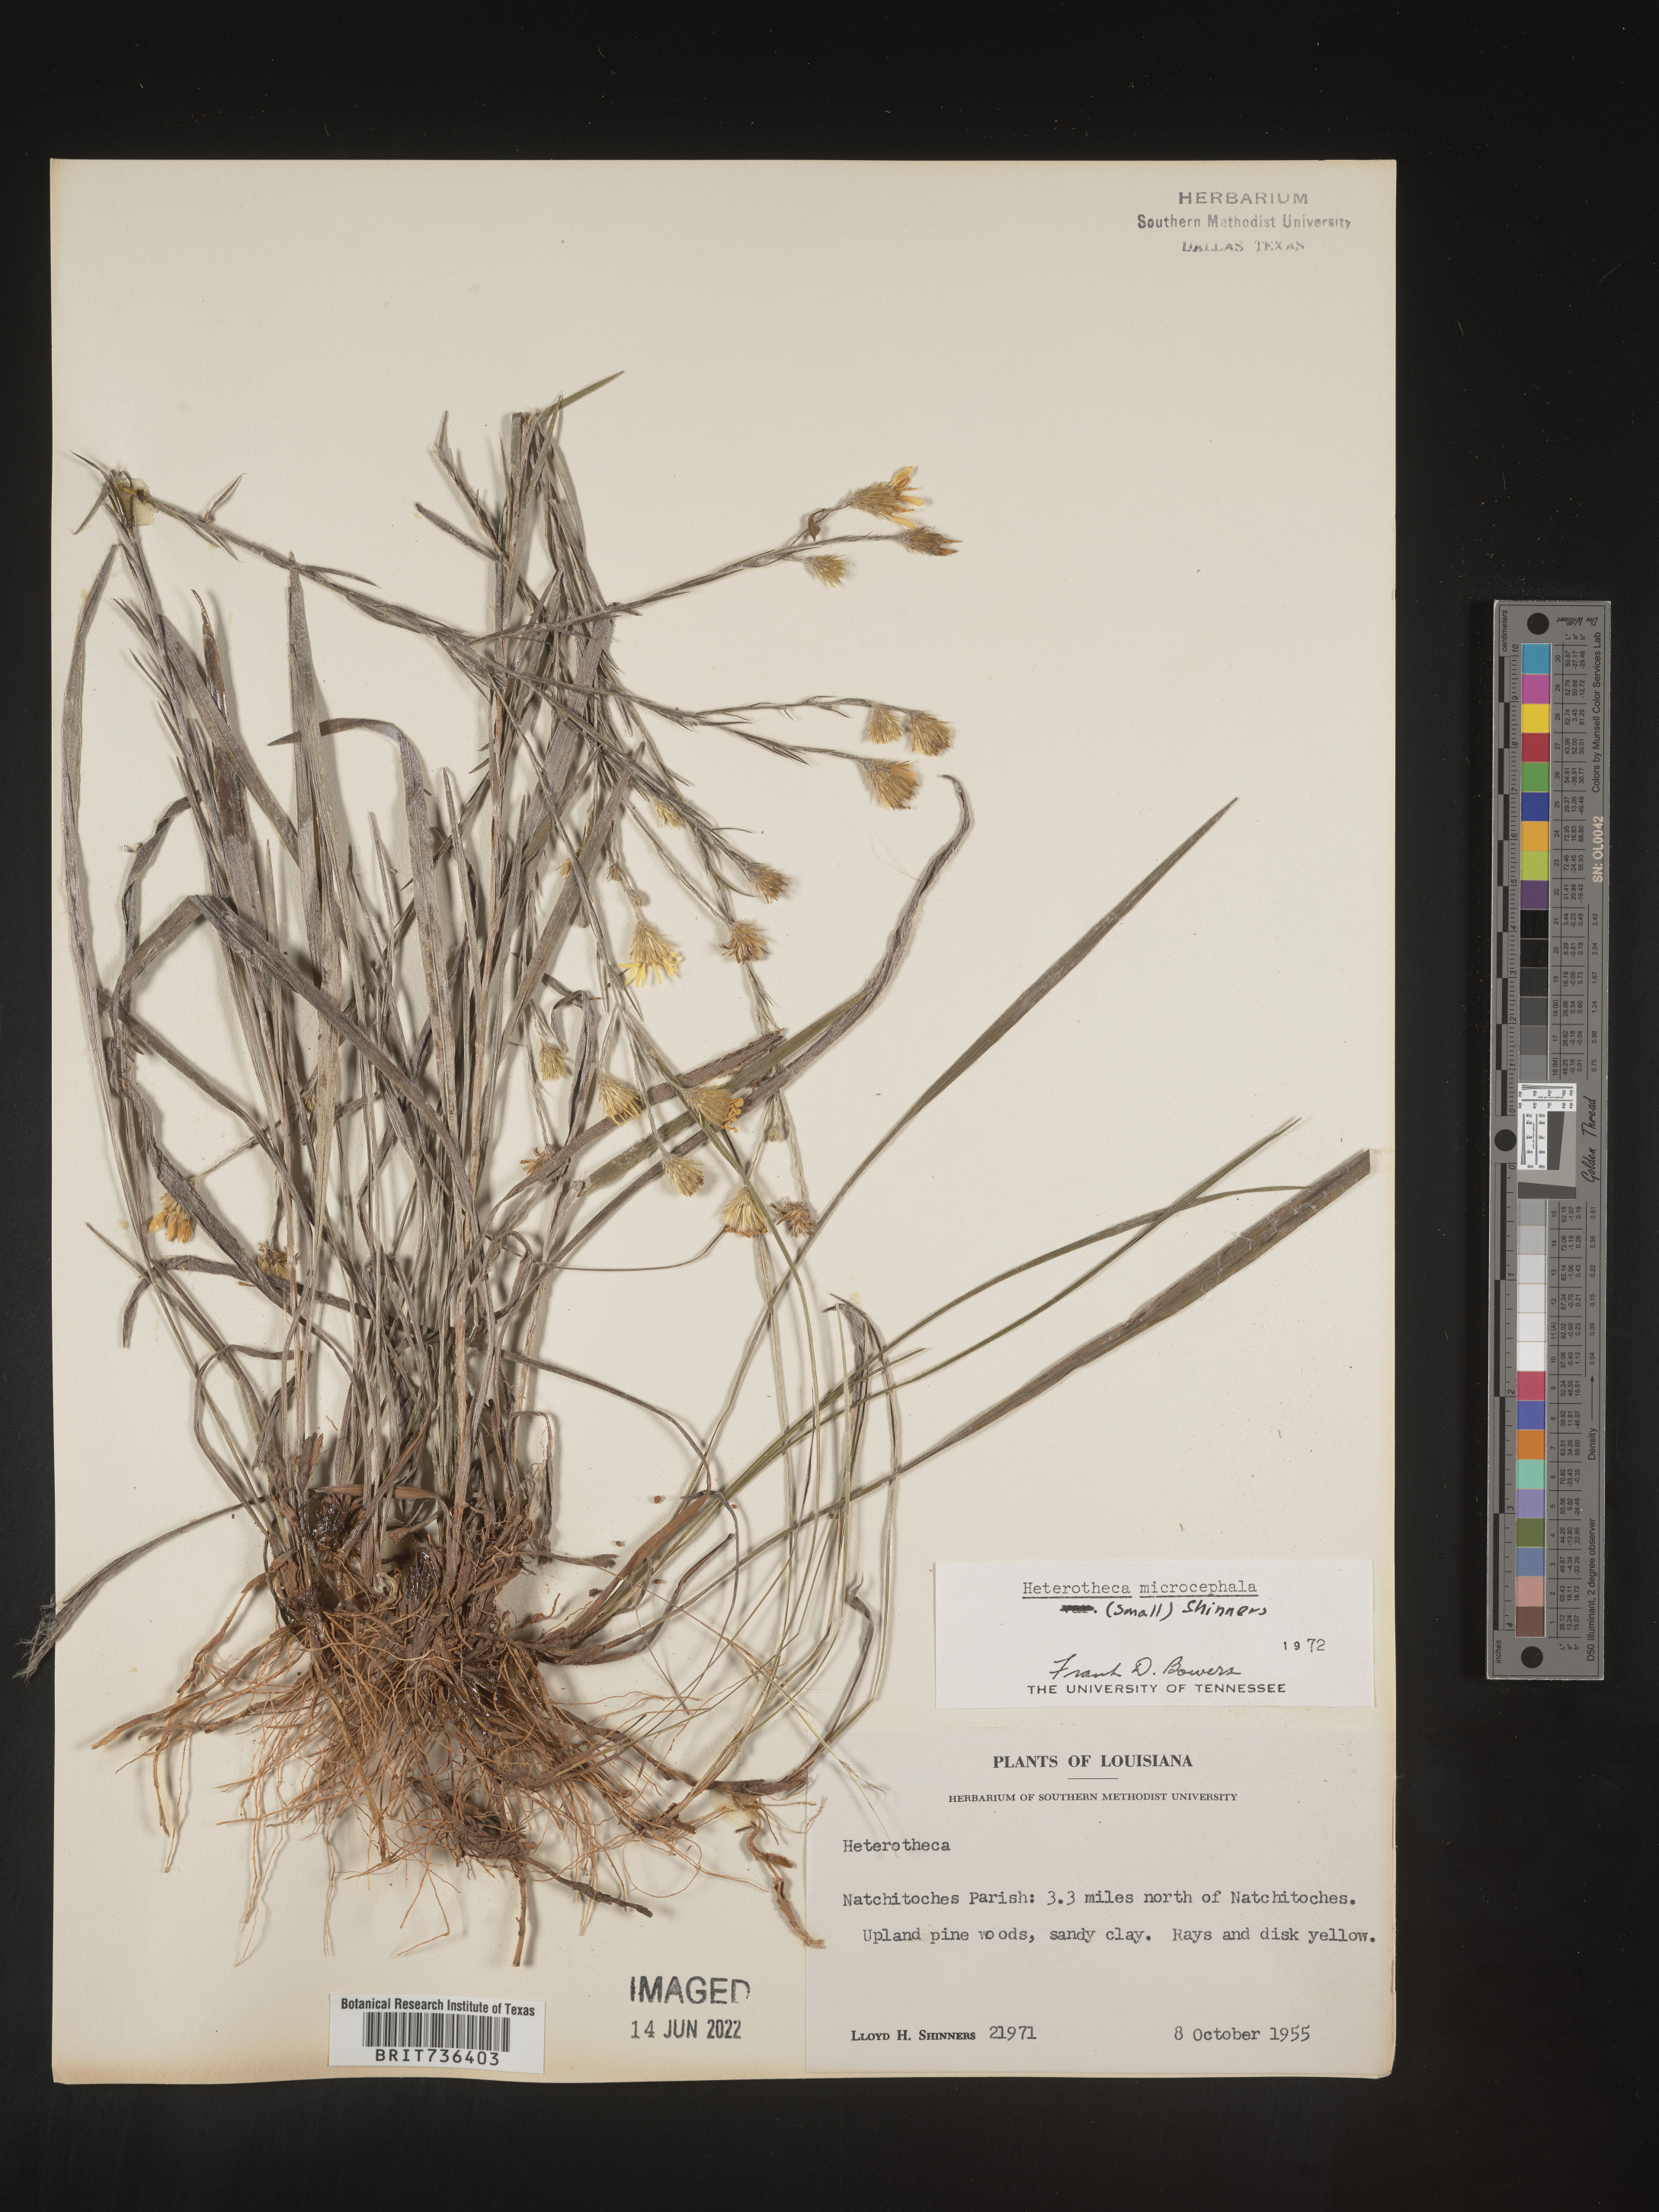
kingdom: Plantae
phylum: Tracheophyta
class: Magnoliopsida
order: Asterales
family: Asteraceae
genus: Pityopsis
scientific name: Pityopsis tenuifolia
